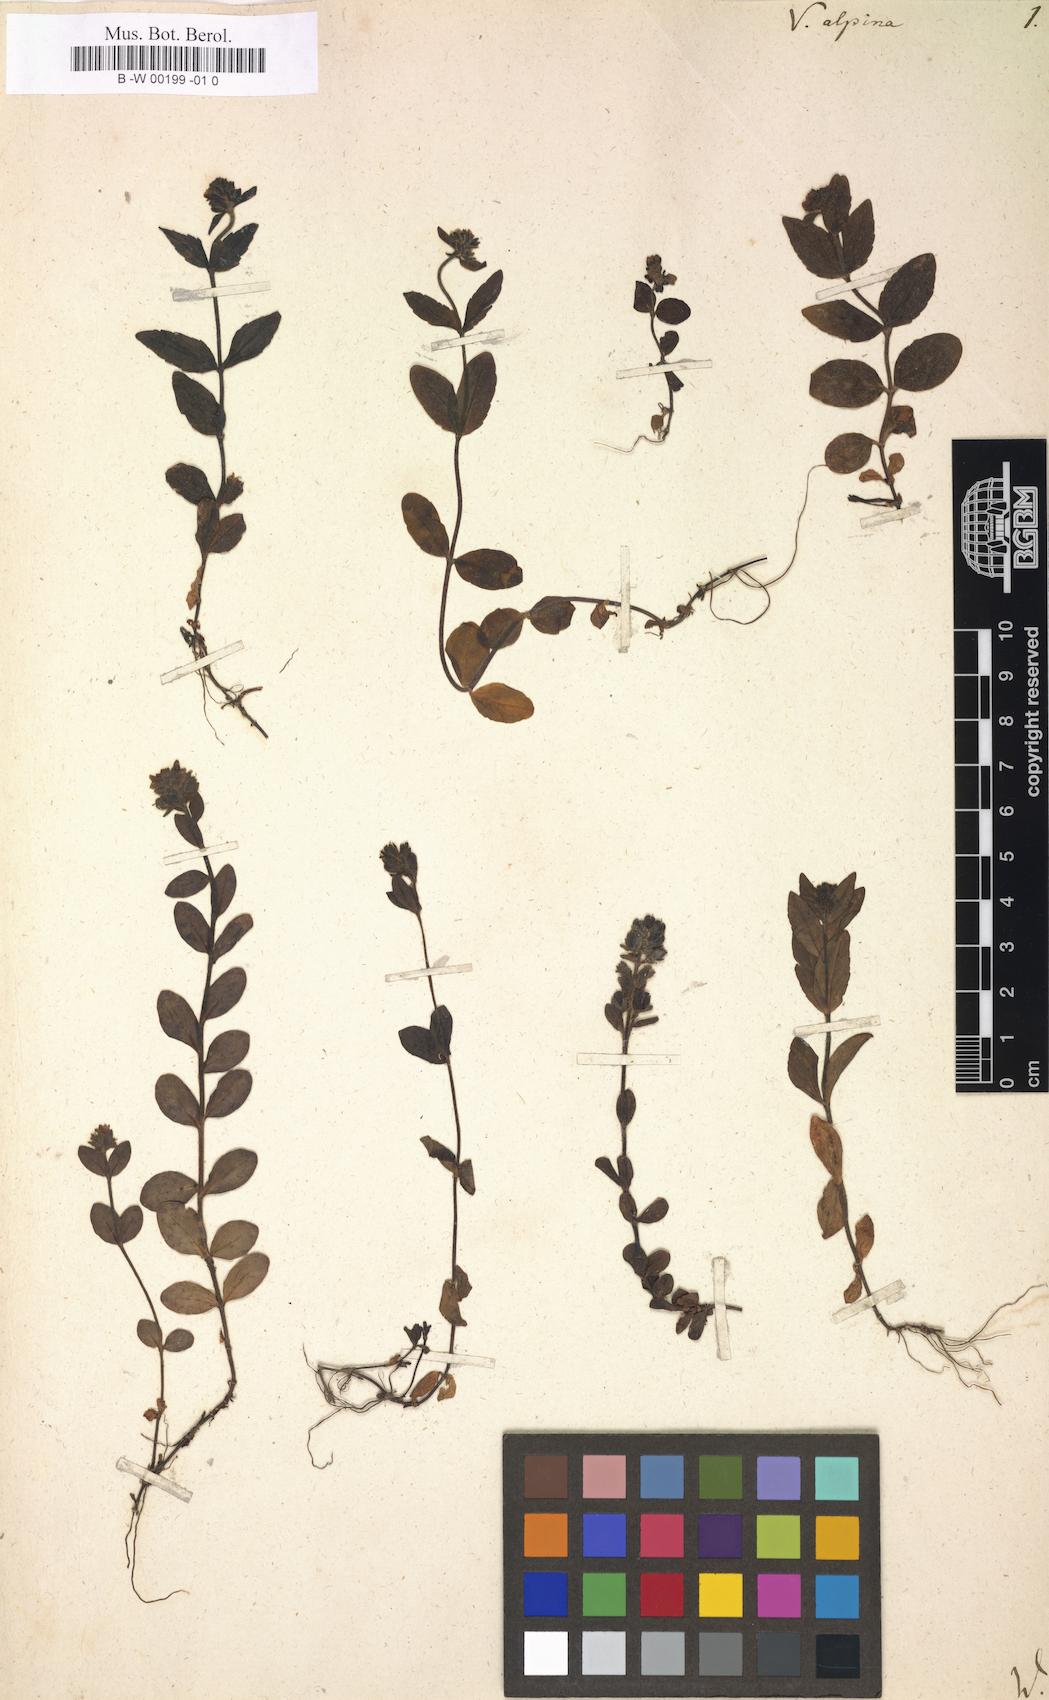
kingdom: Plantae
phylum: Tracheophyta
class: Magnoliopsida
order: Lamiales
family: Plantaginaceae
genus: Veronica
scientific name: Veronica alpina
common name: Alpine speedwell
